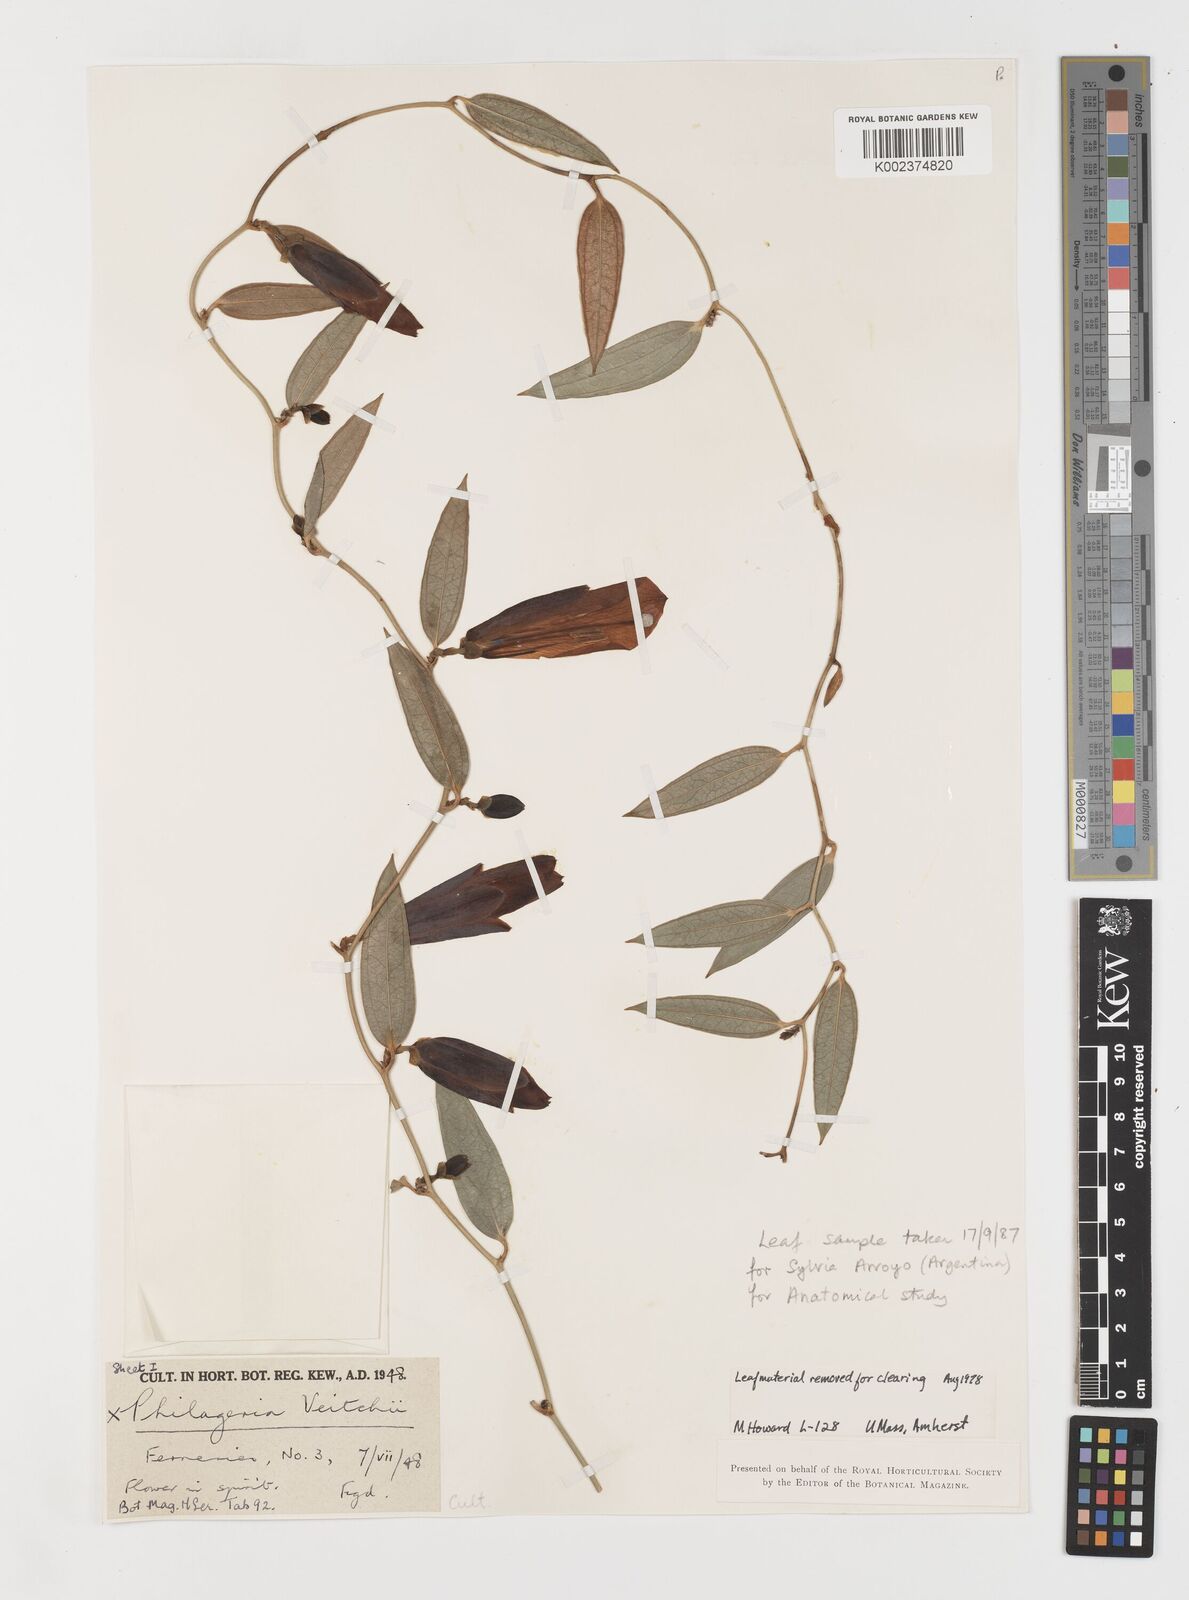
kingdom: Plantae
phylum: Tracheophyta
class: Liliopsida
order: Liliales
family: Philesiaceae
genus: Philageria
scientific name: Philageria veitchii
